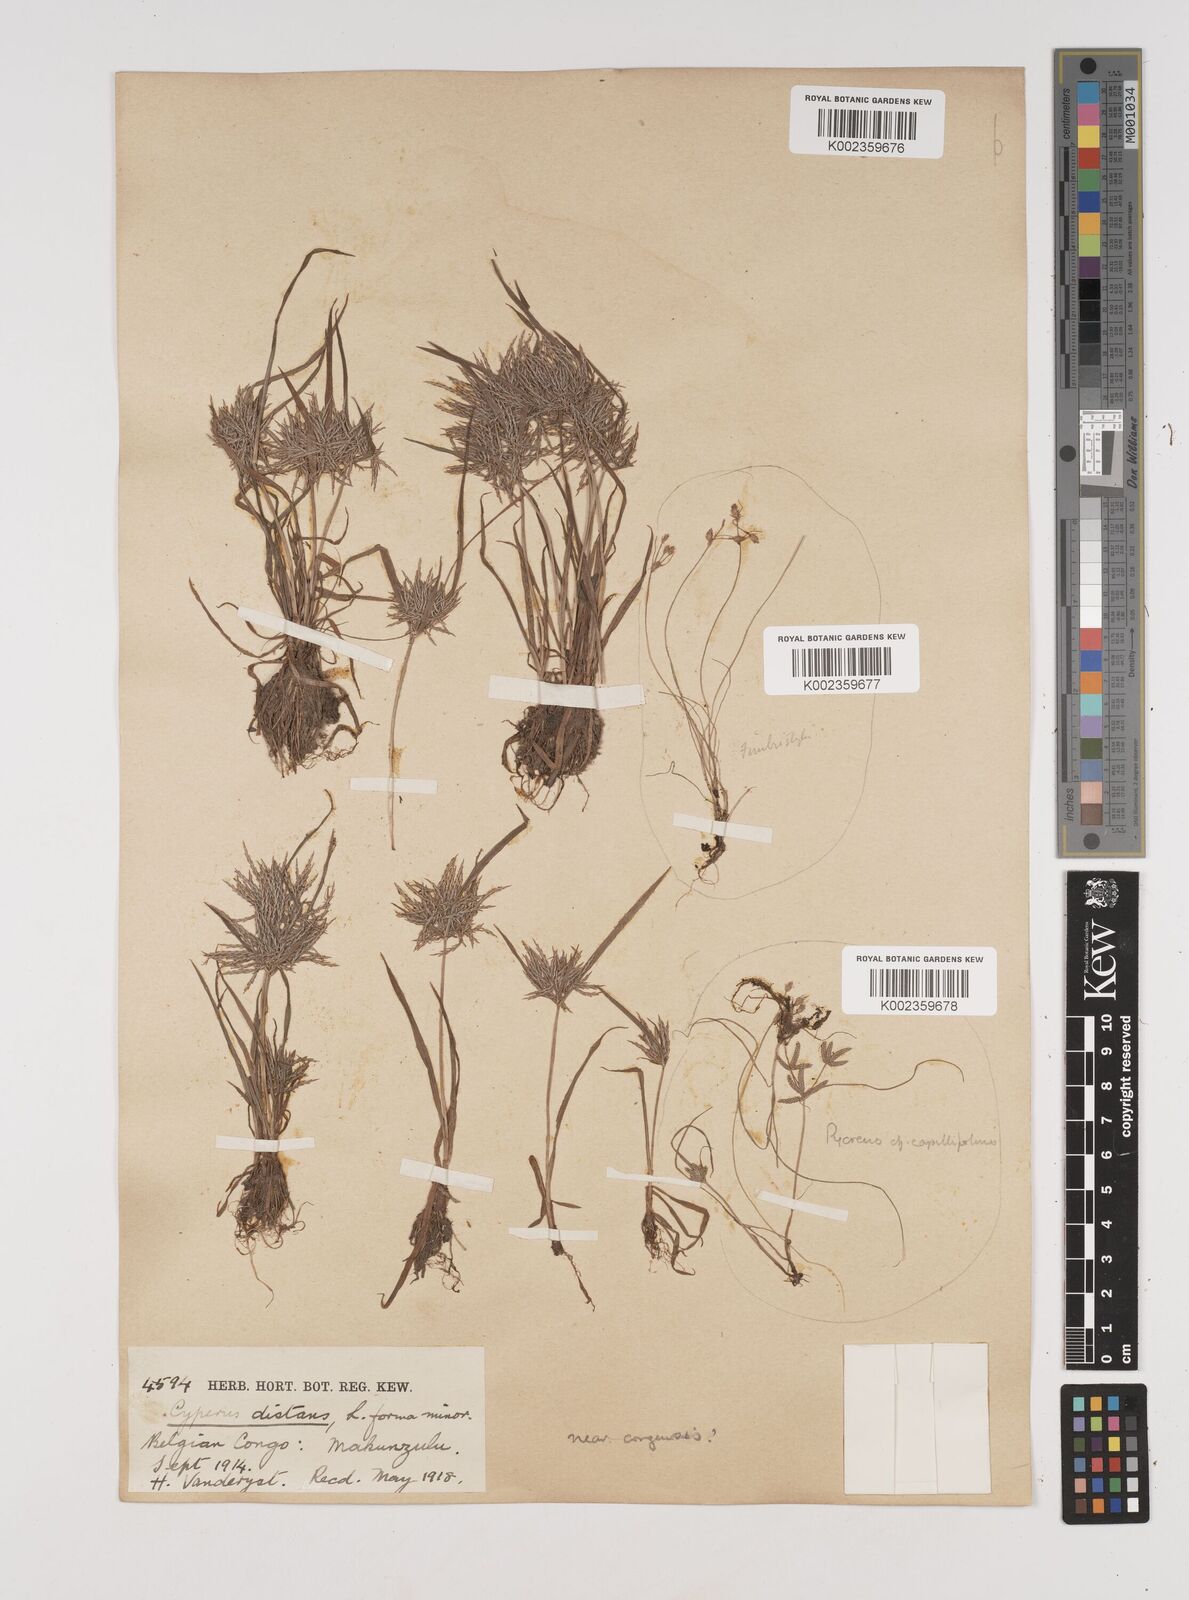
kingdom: Plantae
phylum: Tracheophyta
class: Liliopsida
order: Poales
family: Cyperaceae
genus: Cyperus
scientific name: Cyperus
